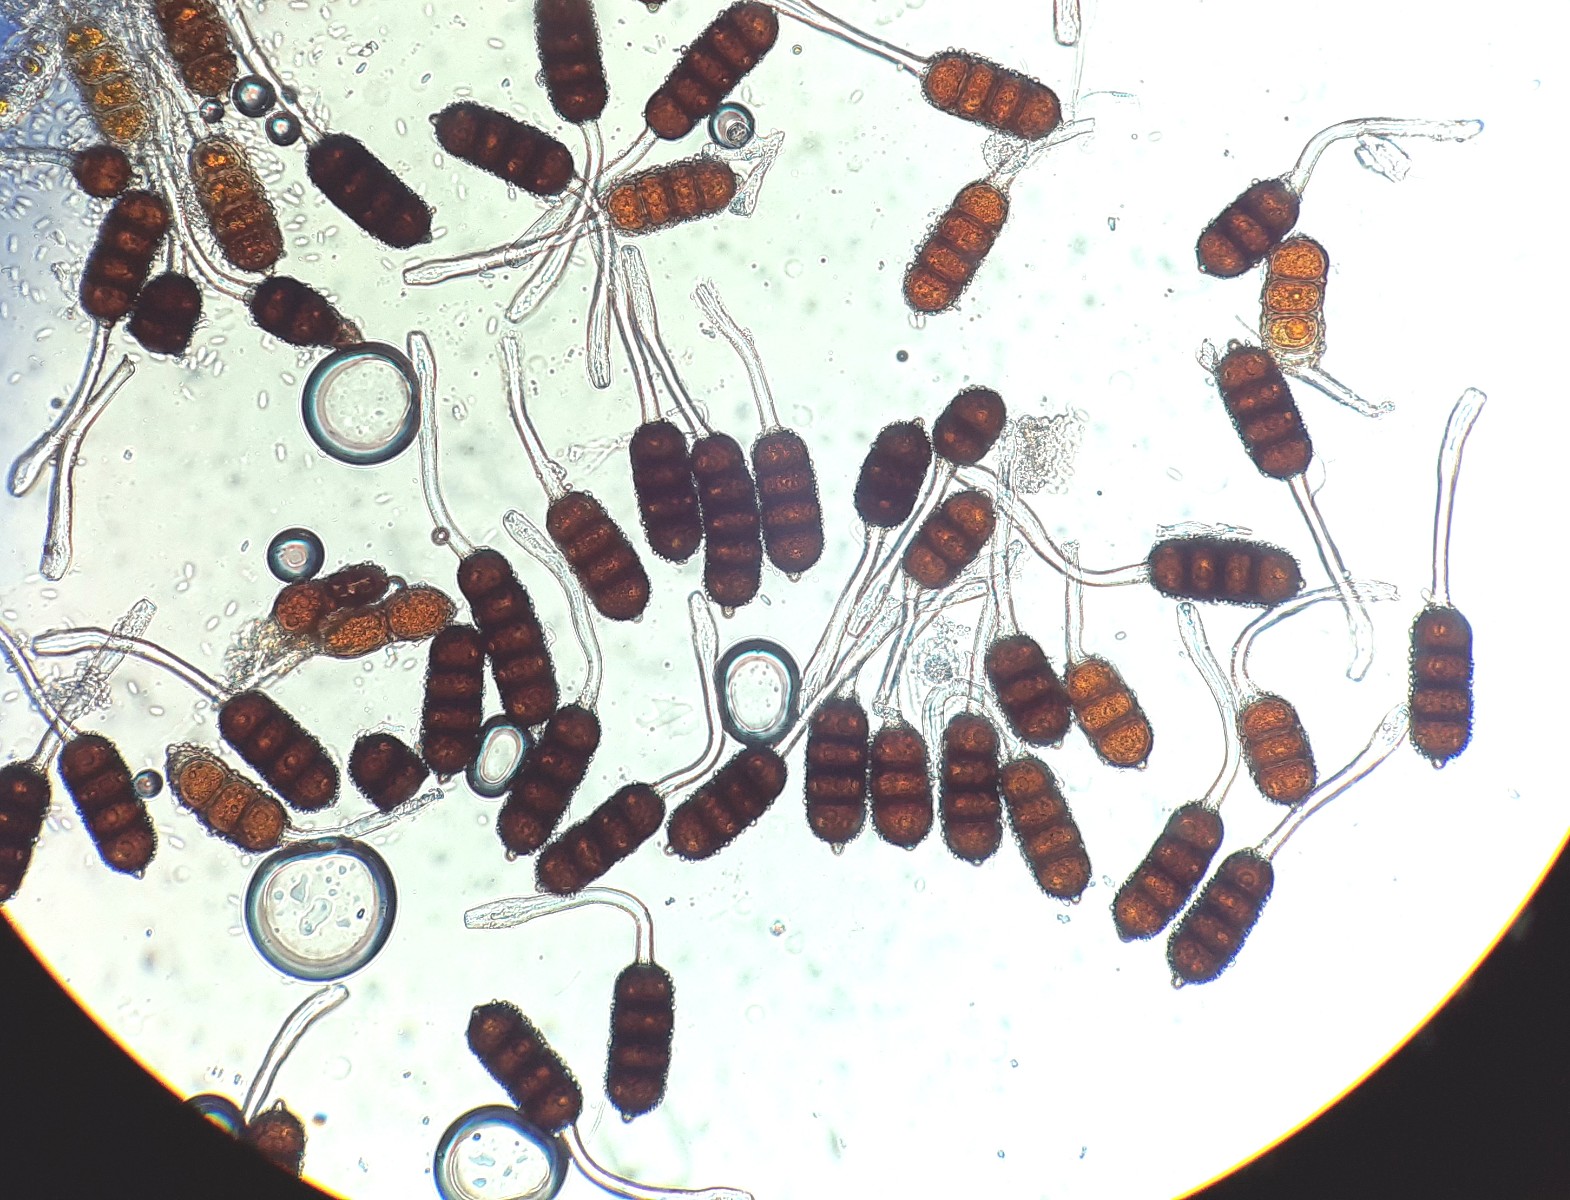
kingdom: Fungi
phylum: Basidiomycota
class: Pucciniomycetes
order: Pucciniales
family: Phragmidiaceae
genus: Phragmidium
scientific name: Phragmidium violaceum
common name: violet flercellerust
